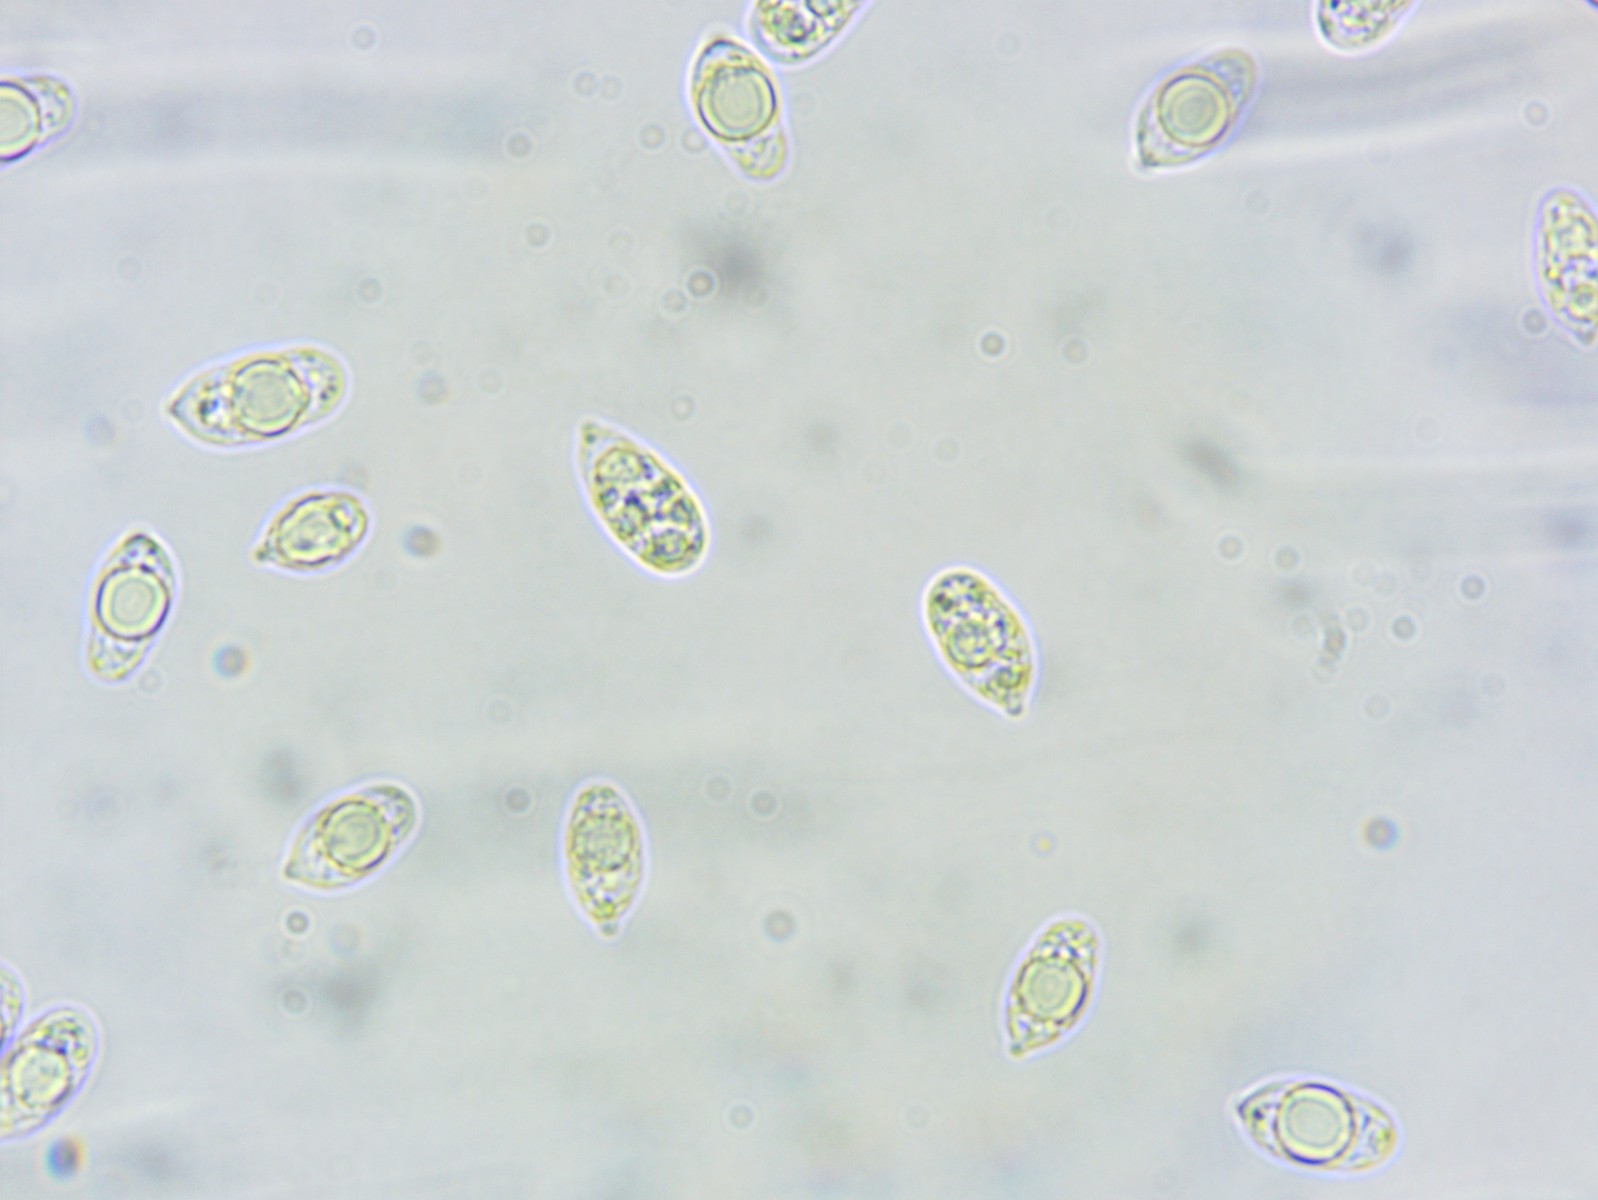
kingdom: Fungi
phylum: Basidiomycota
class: Agaricomycetes
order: Agaricales
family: Hygrophoraceae
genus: Cuphophyllus
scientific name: Cuphophyllus virgineus
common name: isabella-vokshat
